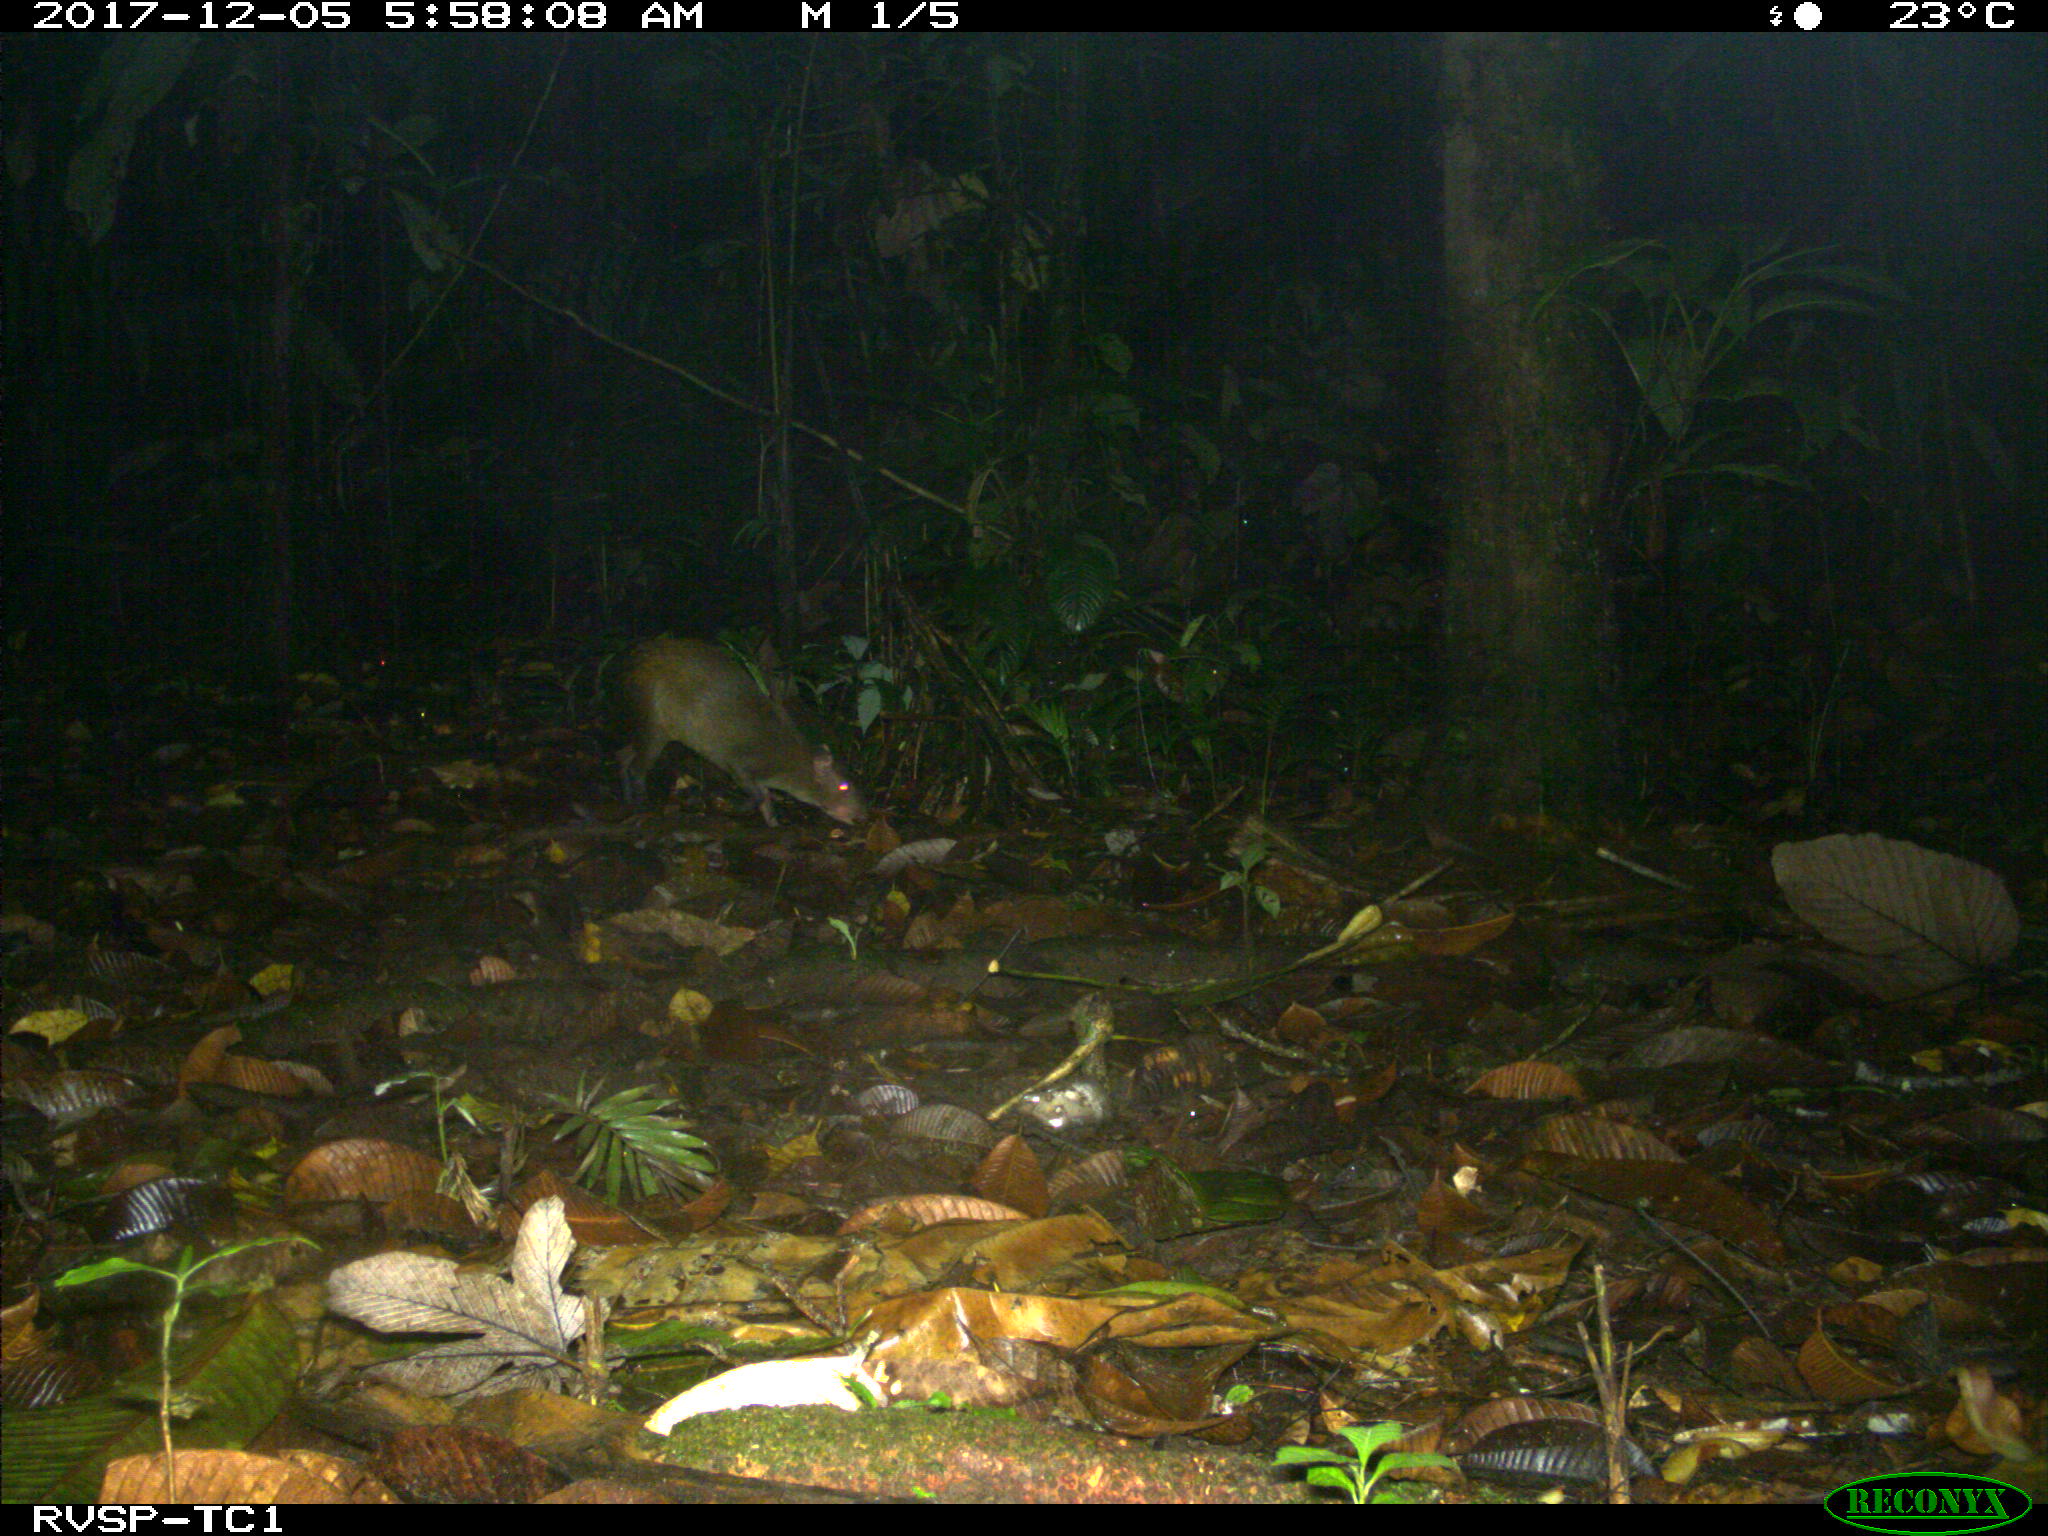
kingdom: Animalia
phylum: Chordata
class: Mammalia
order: Rodentia
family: Dasyproctidae
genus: Dasyprocta
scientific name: Dasyprocta punctata
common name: Central american agouti
